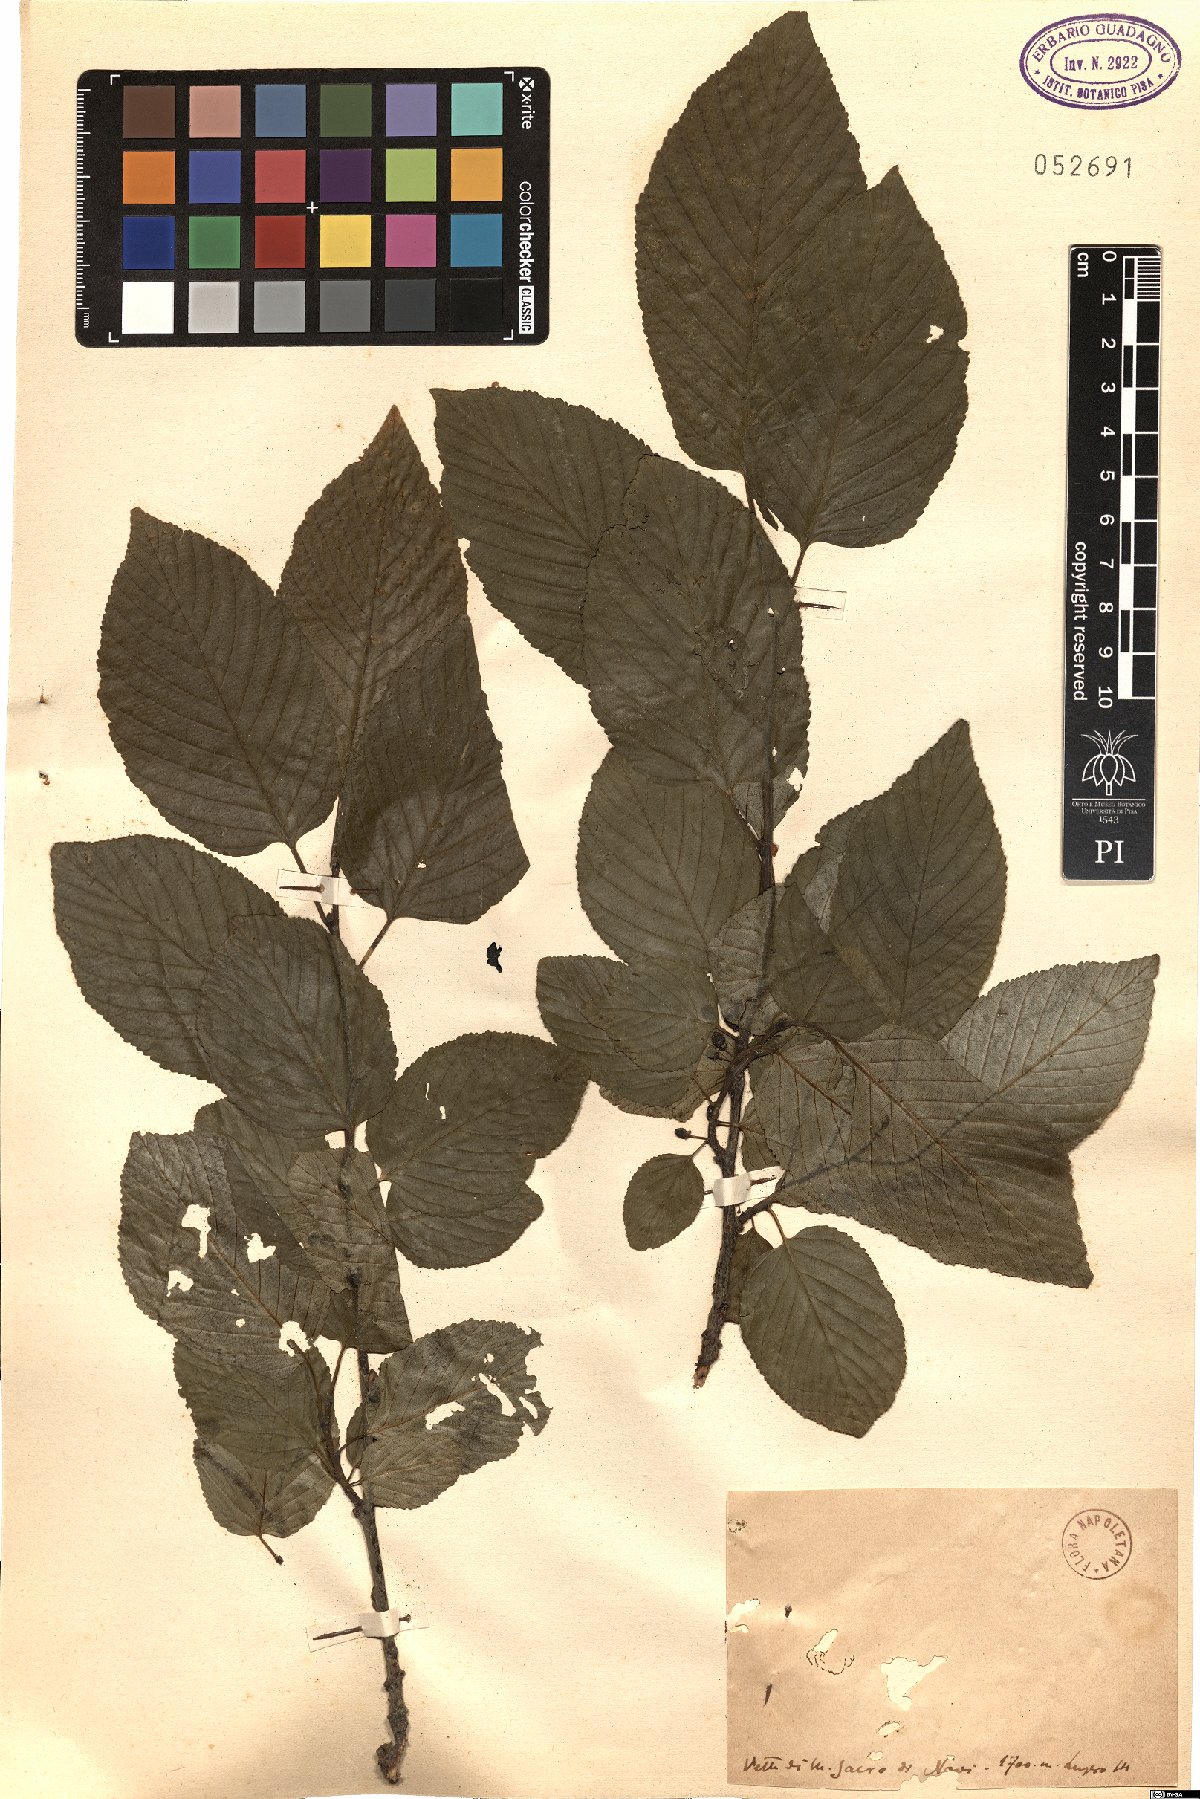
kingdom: Plantae
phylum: Tracheophyta
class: Magnoliopsida
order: Rosales
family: Rhamnaceae
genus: Rhamnus
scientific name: Rhamnus
